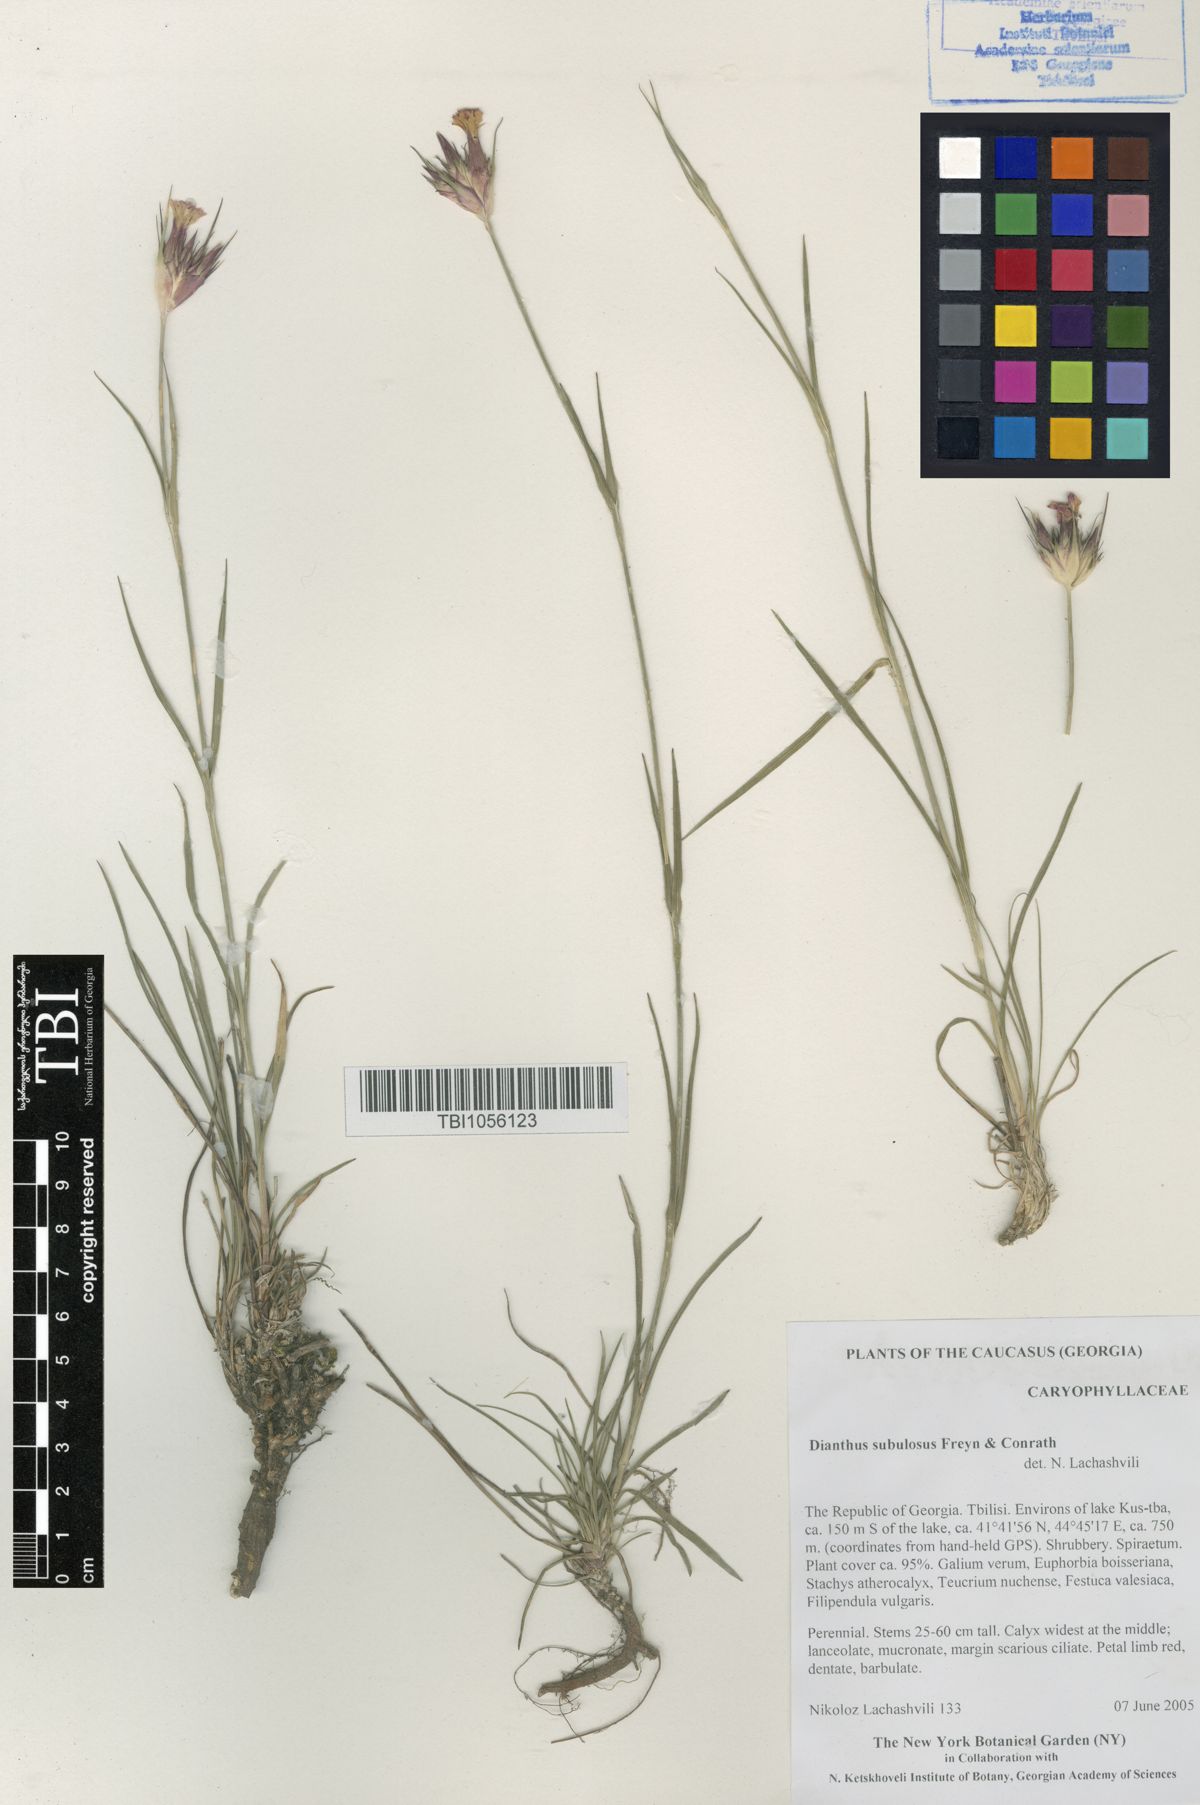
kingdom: Plantae
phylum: Tracheophyta
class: Magnoliopsida
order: Caryophyllales
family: Caryophyllaceae
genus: Dianthus
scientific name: Dianthus subulosus
